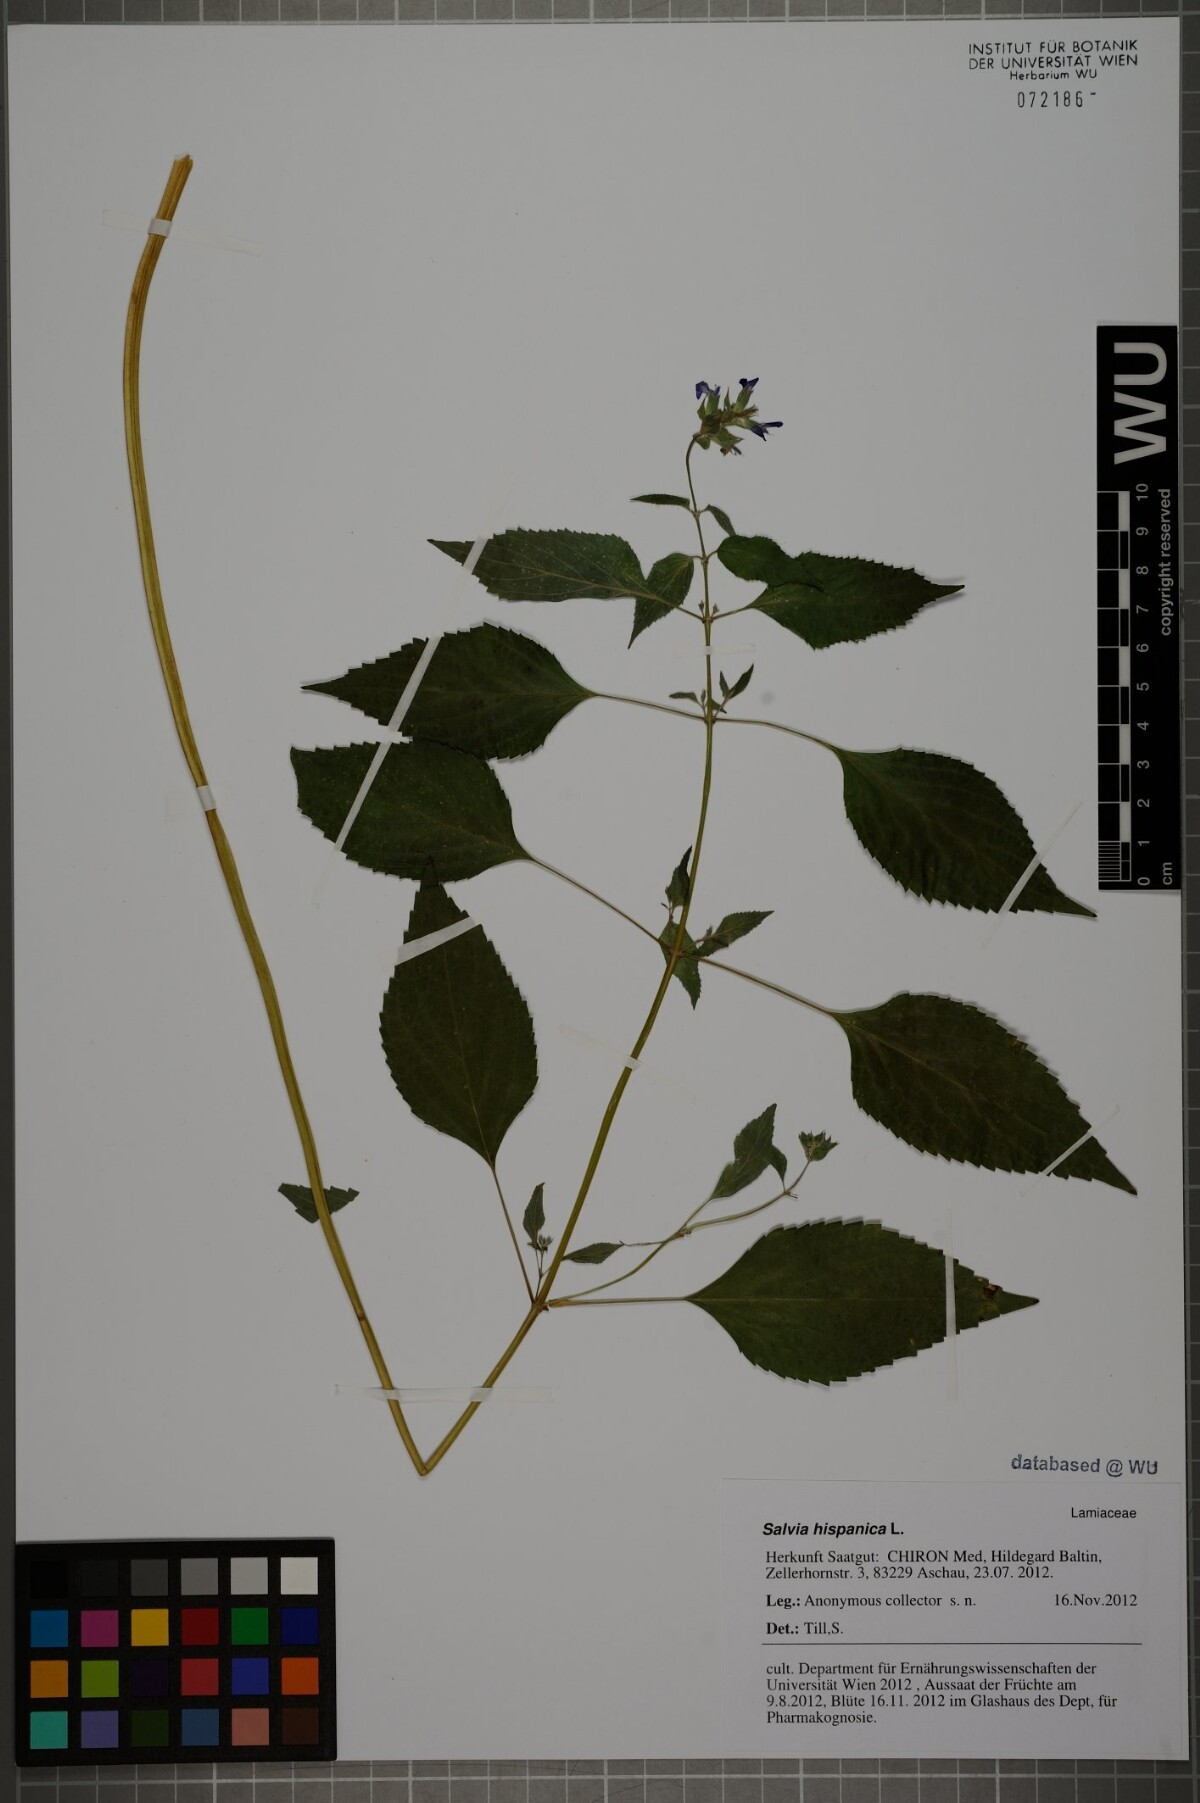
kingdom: Plantae
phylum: Tracheophyta
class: Magnoliopsida
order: Lamiales
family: Lamiaceae
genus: Salvia
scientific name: Salvia hispanica
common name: Chia
